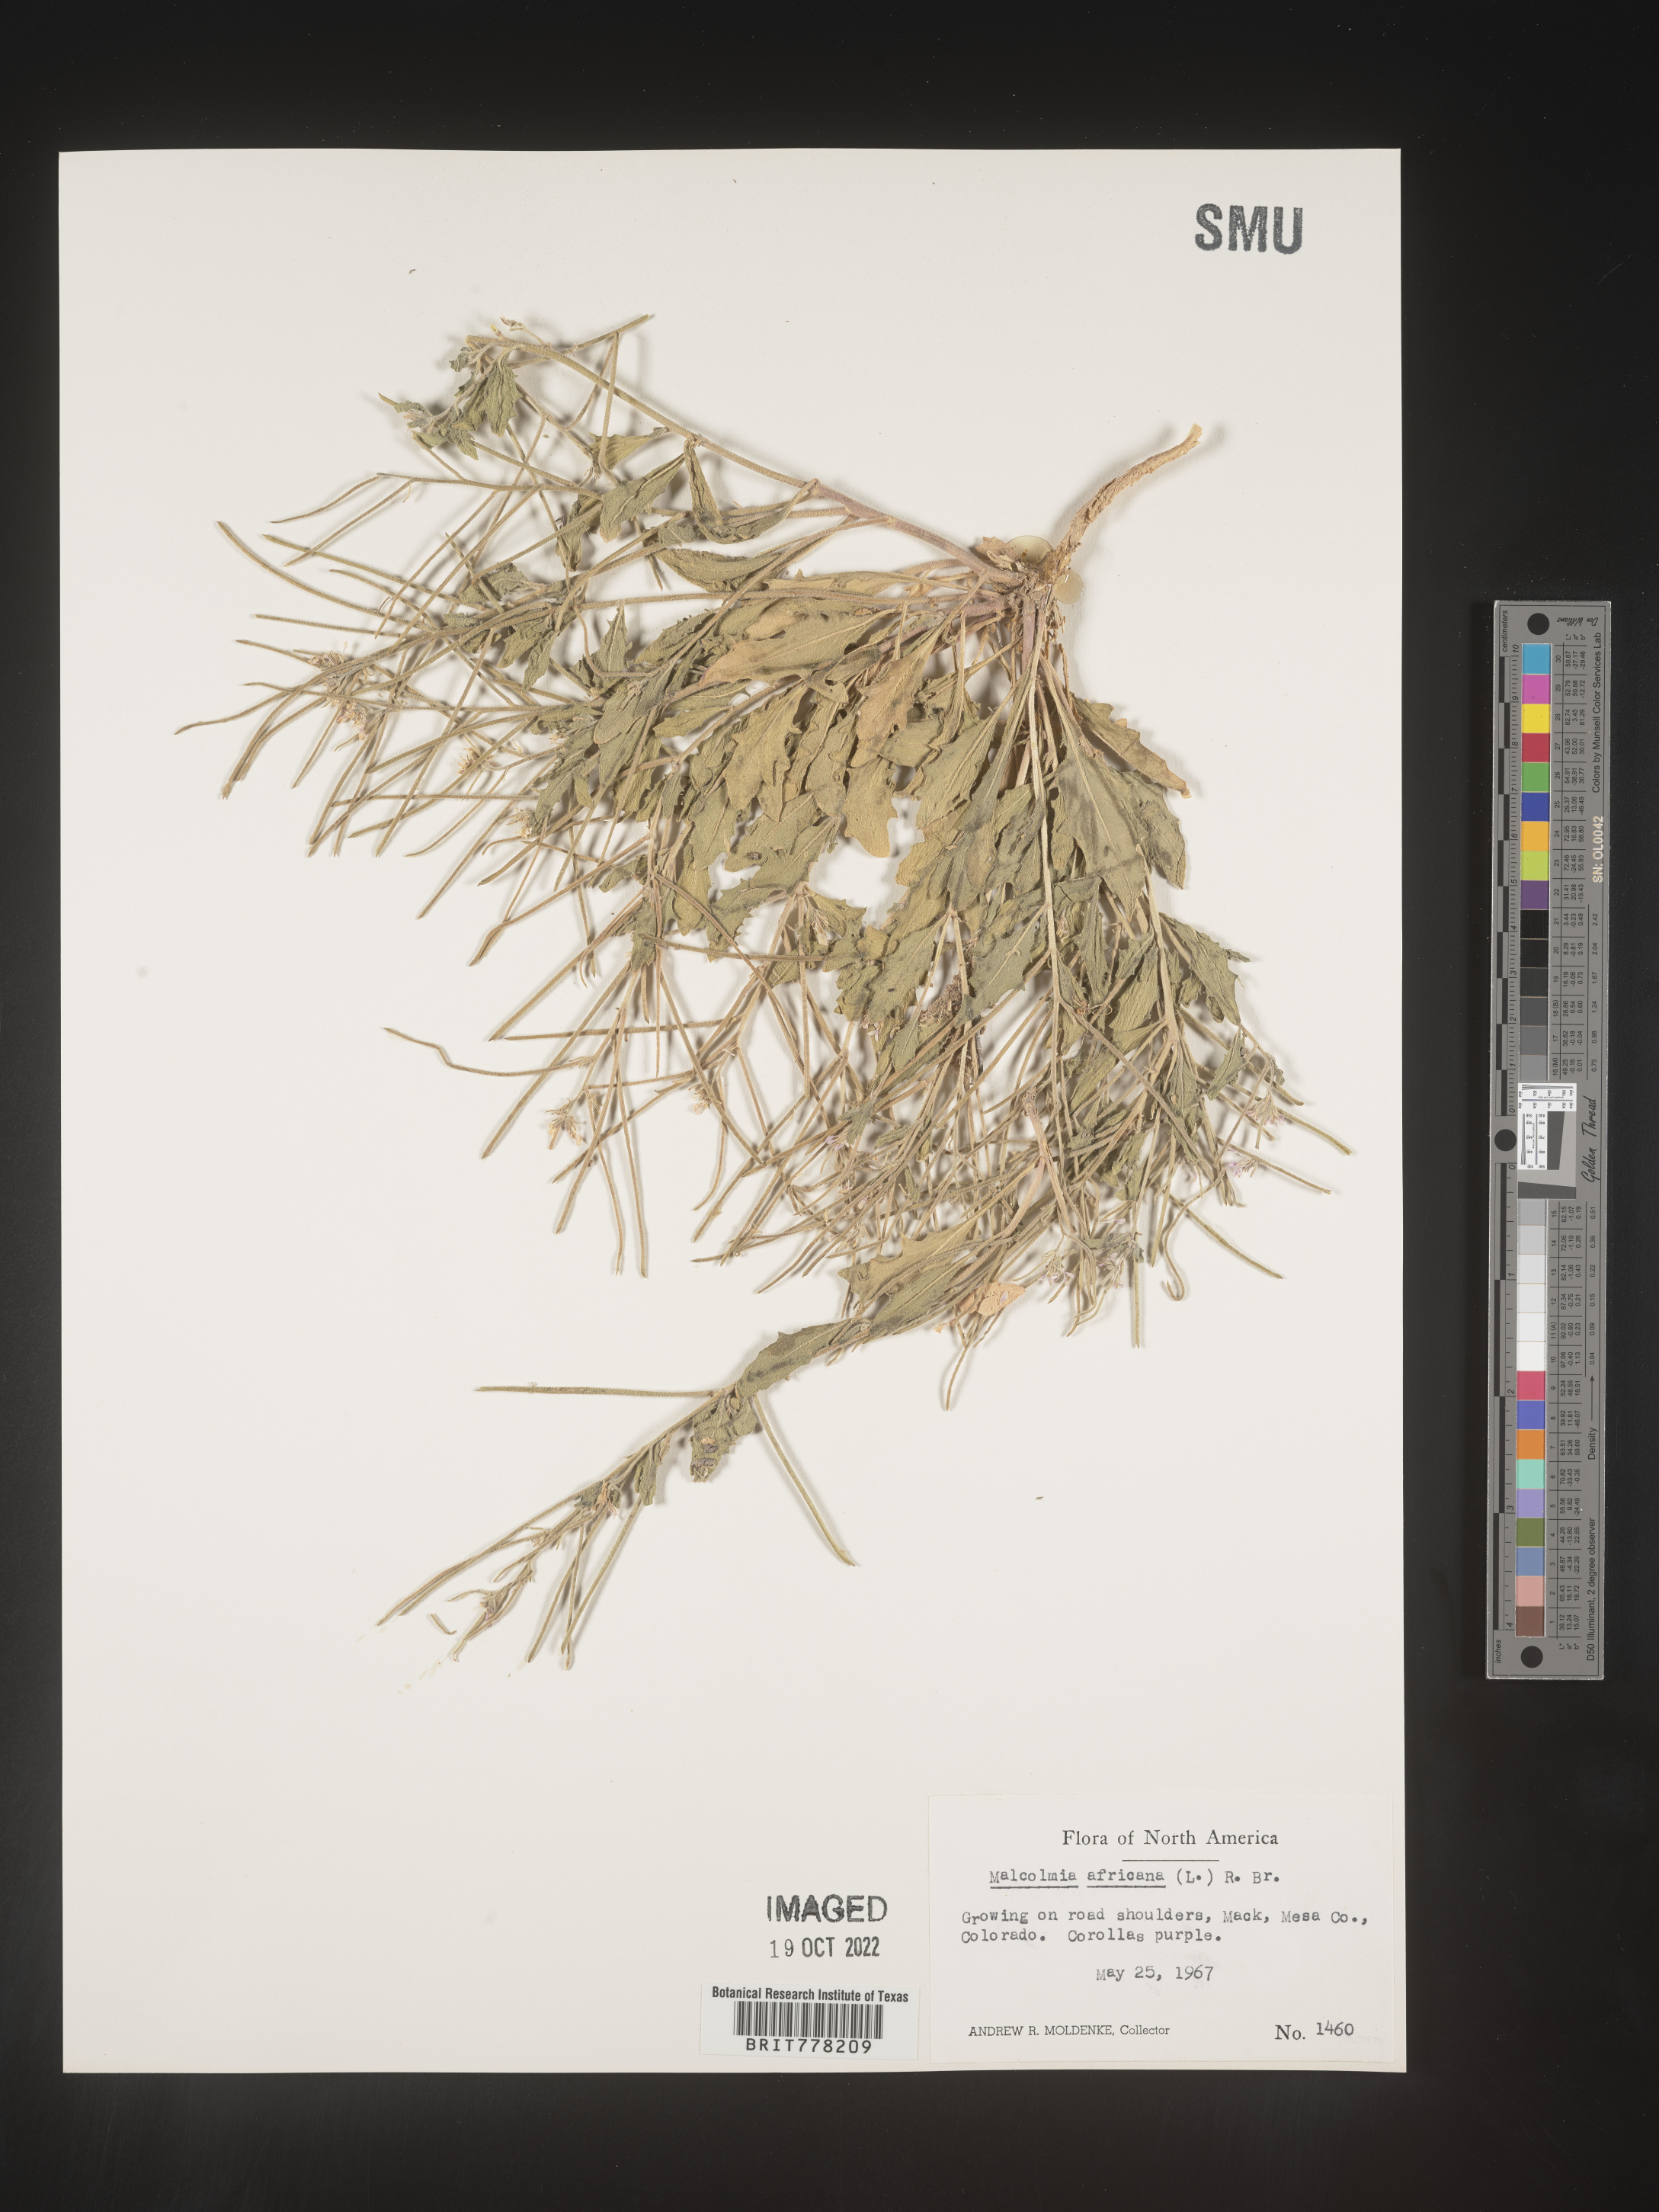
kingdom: Plantae
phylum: Tracheophyta
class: Magnoliopsida
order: Brassicales
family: Brassicaceae
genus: Malcolmia
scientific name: Malcolmia
